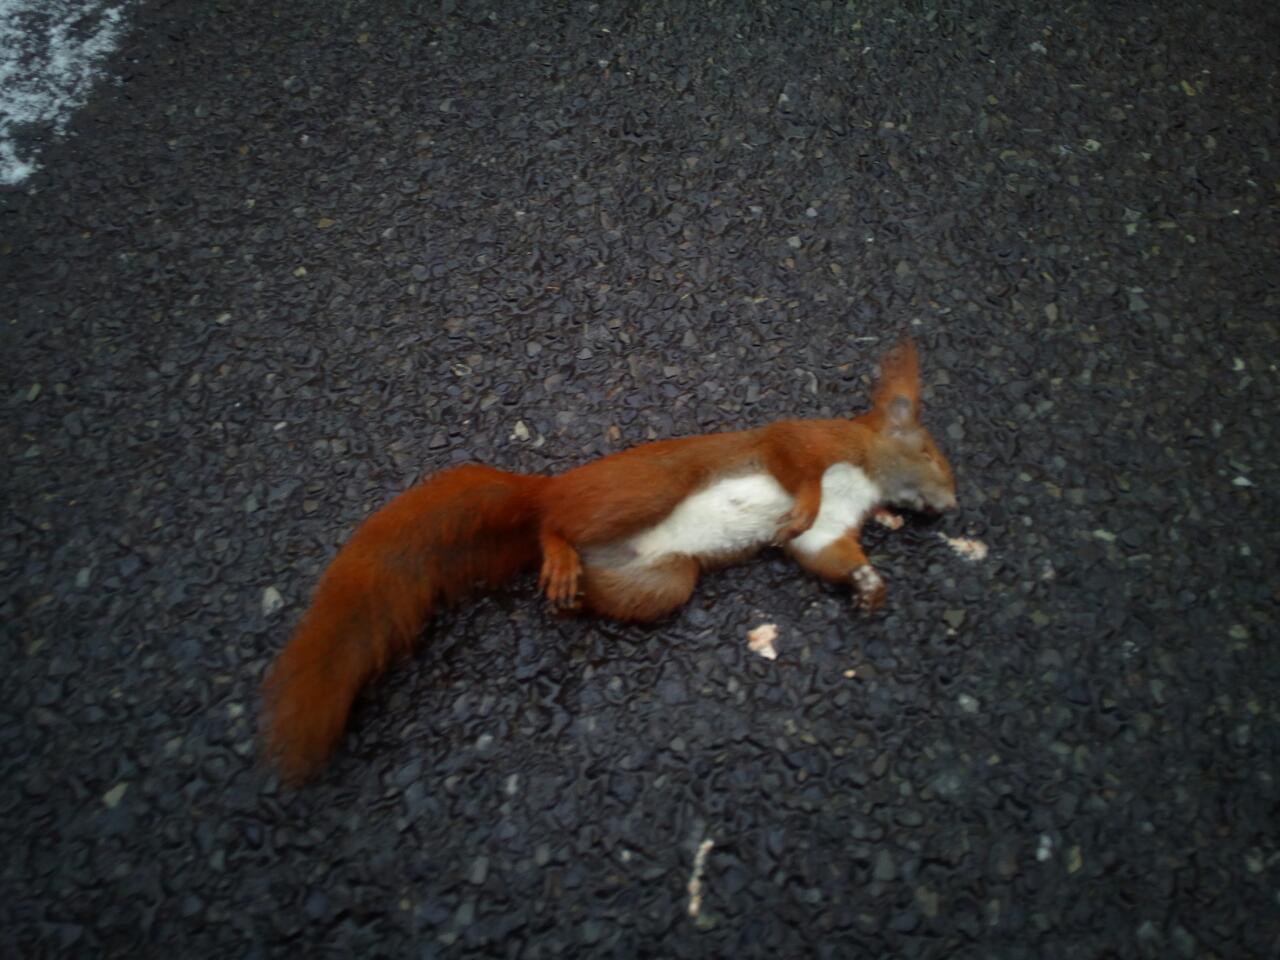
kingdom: Animalia
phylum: Chordata
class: Mammalia
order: Rodentia
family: Sciuridae
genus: Sciurus
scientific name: Sciurus vulgaris
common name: Eurasian red squirrel
